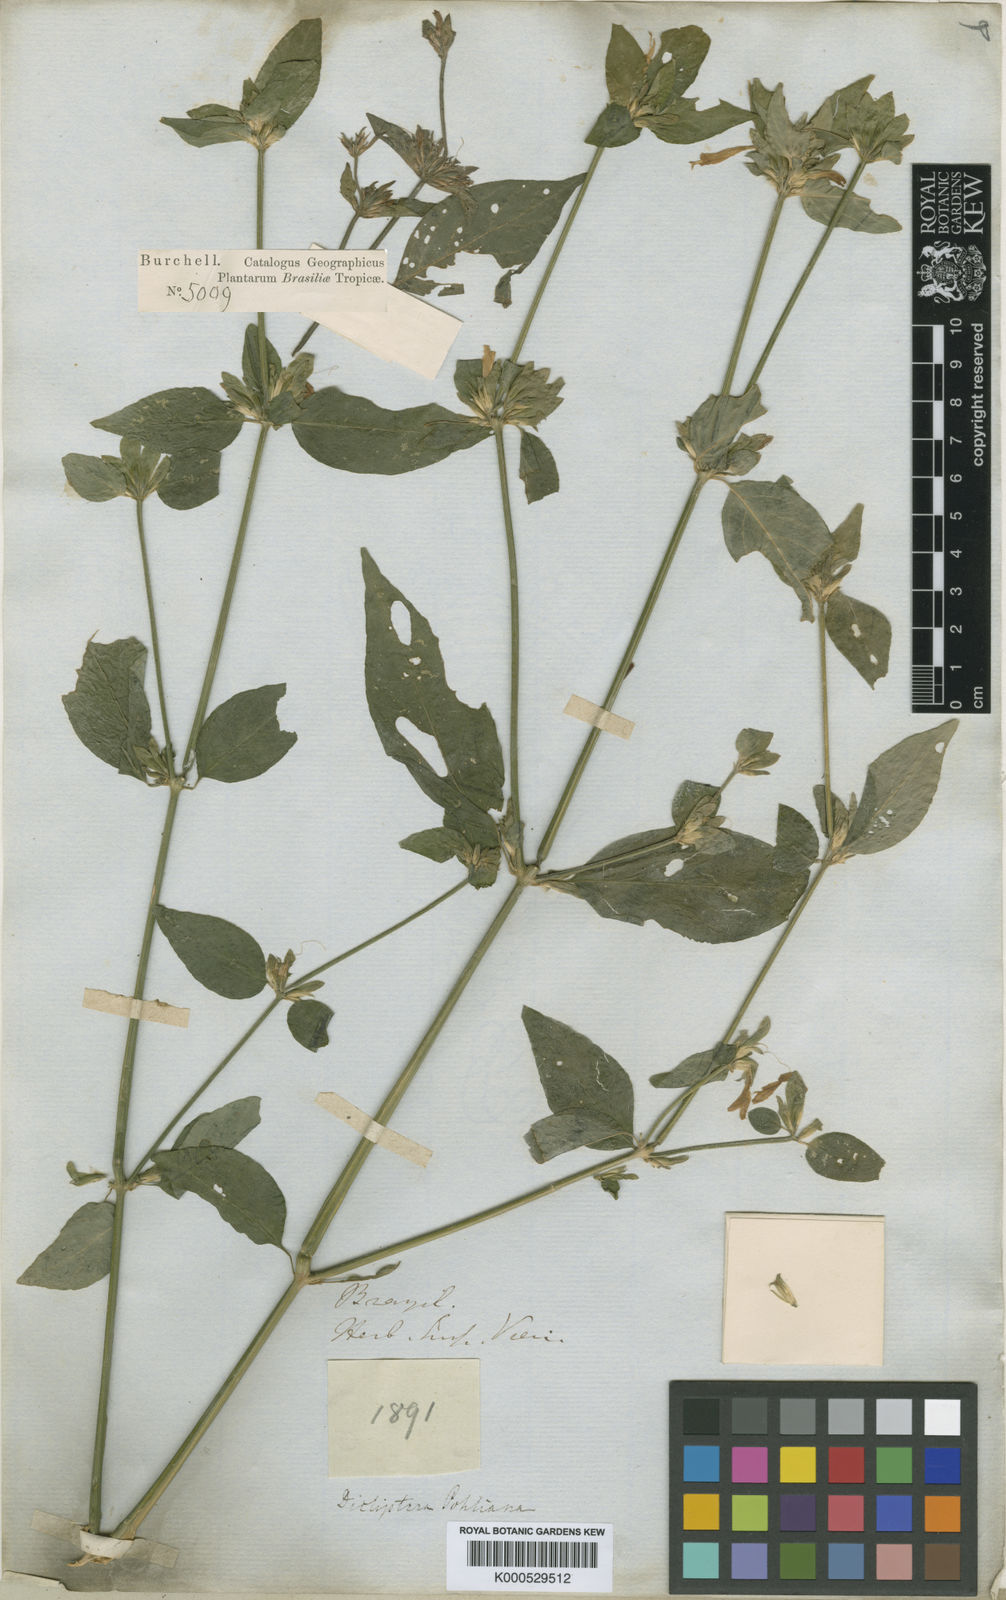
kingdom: Plantae
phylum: Tracheophyta
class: Magnoliopsida
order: Lamiales
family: Acanthaceae
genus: Dicliptera
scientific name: Dicliptera squarrosa
